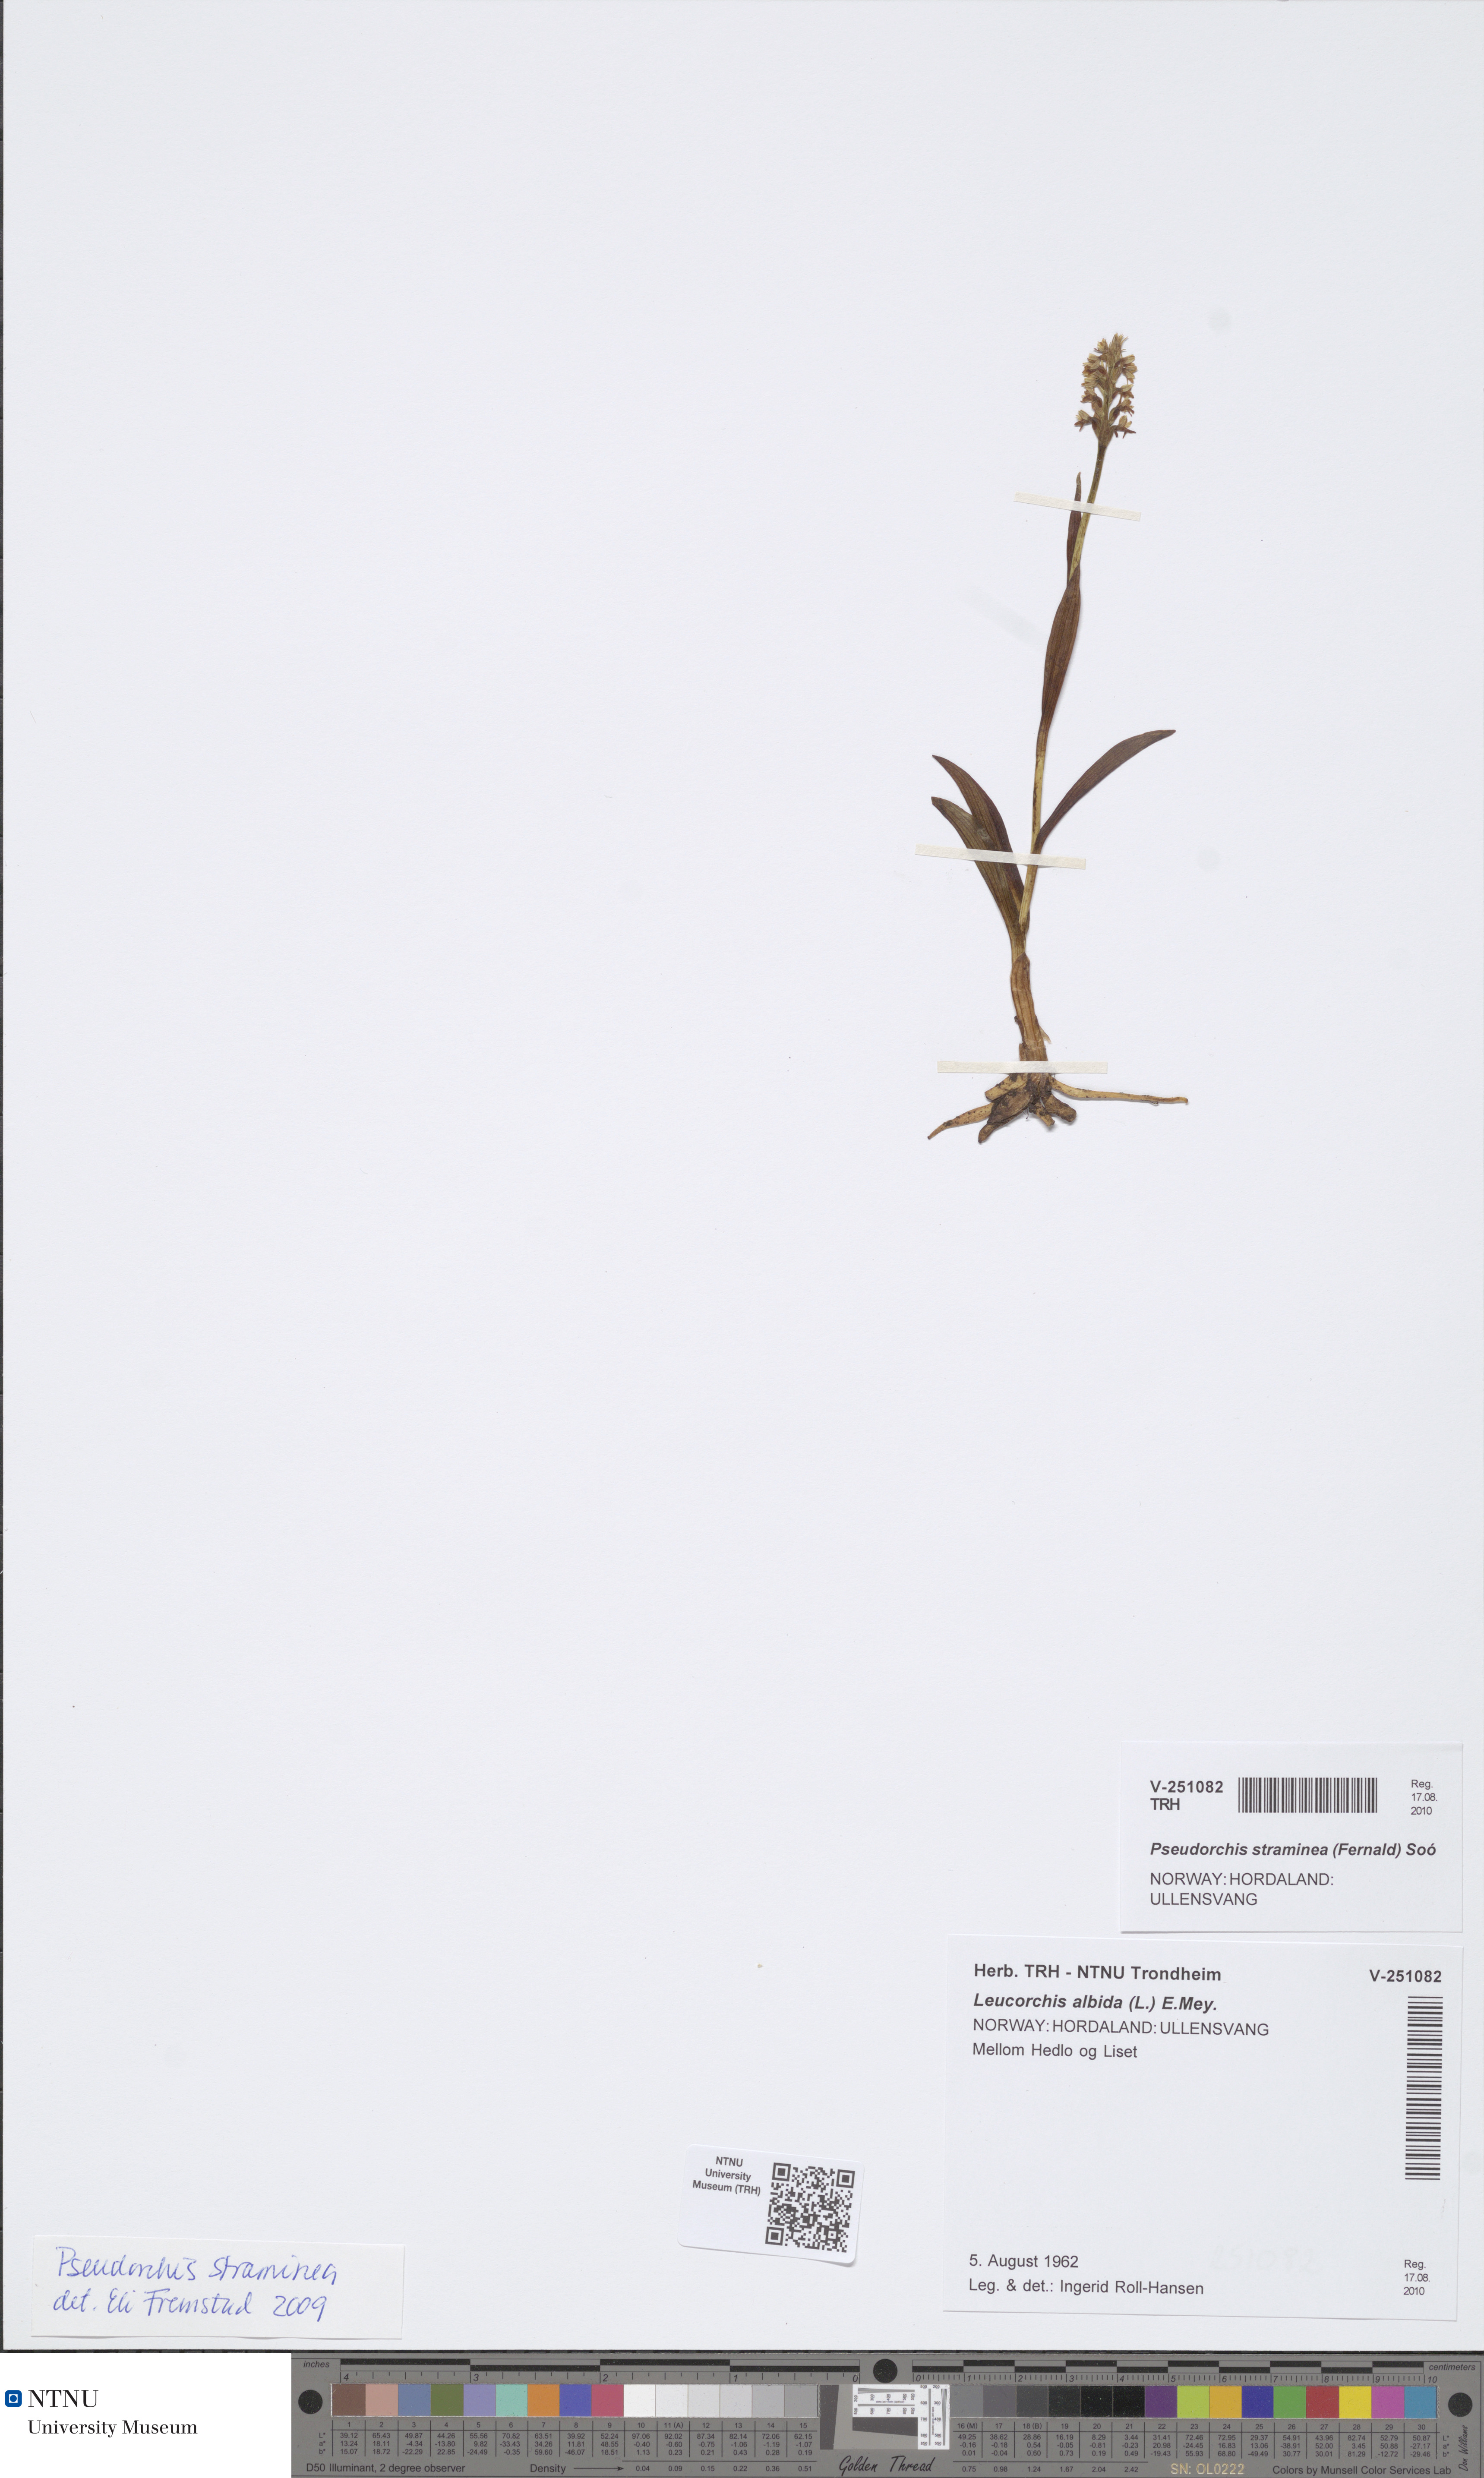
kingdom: Plantae
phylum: Tracheophyta
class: Liliopsida
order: Asparagales
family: Orchidaceae
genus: Pseudorchis
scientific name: Pseudorchis straminea
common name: Vanilla-scented bog orchid
